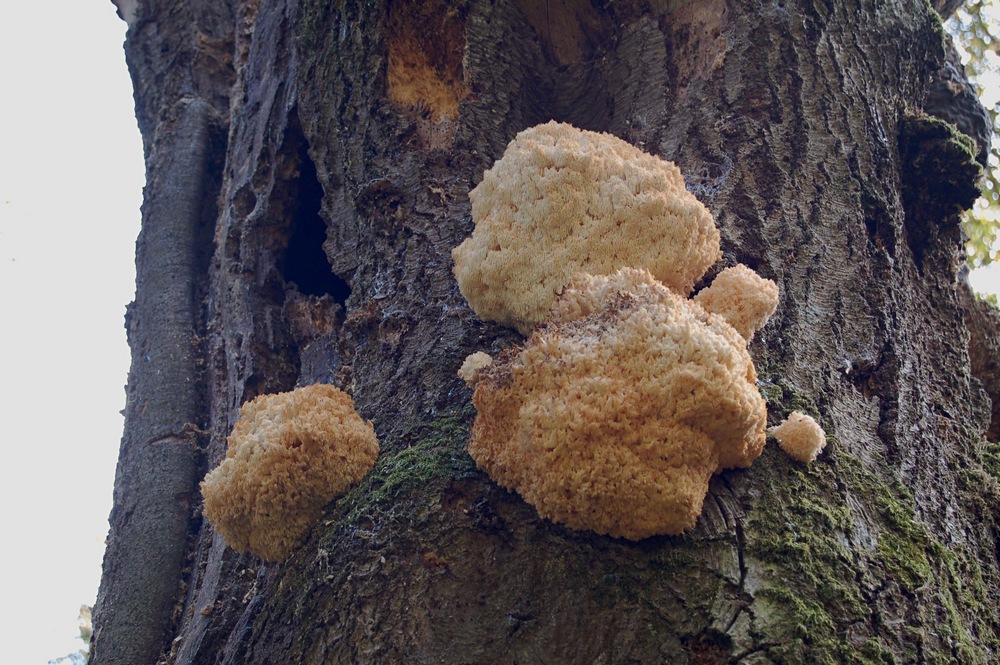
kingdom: Fungi
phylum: Basidiomycota
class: Agaricomycetes
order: Russulales
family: Hericiaceae
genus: Hericium
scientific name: Hericium coralloides
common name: koralpigsvamp
